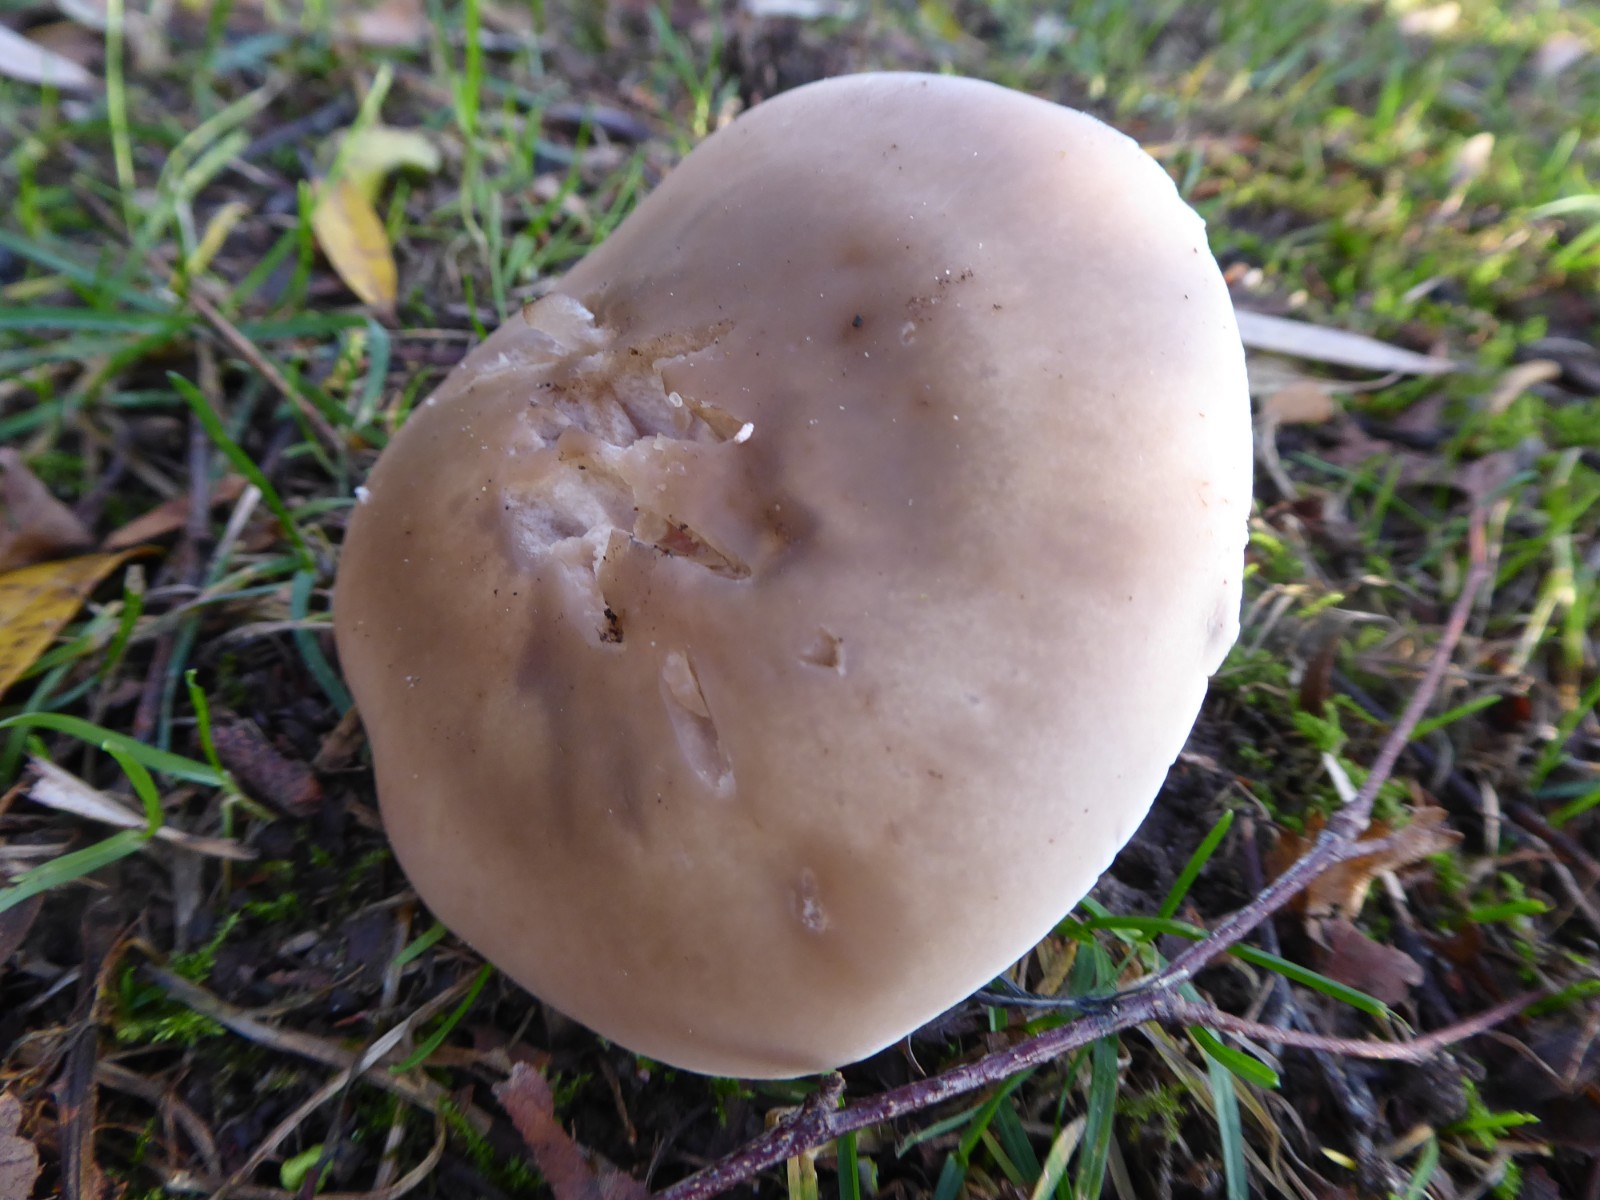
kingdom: Fungi
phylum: Basidiomycota
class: Agaricomycetes
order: Agaricales
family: Tricholomataceae
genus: Lepista
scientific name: Lepista personata
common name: bleg hekseringshat
